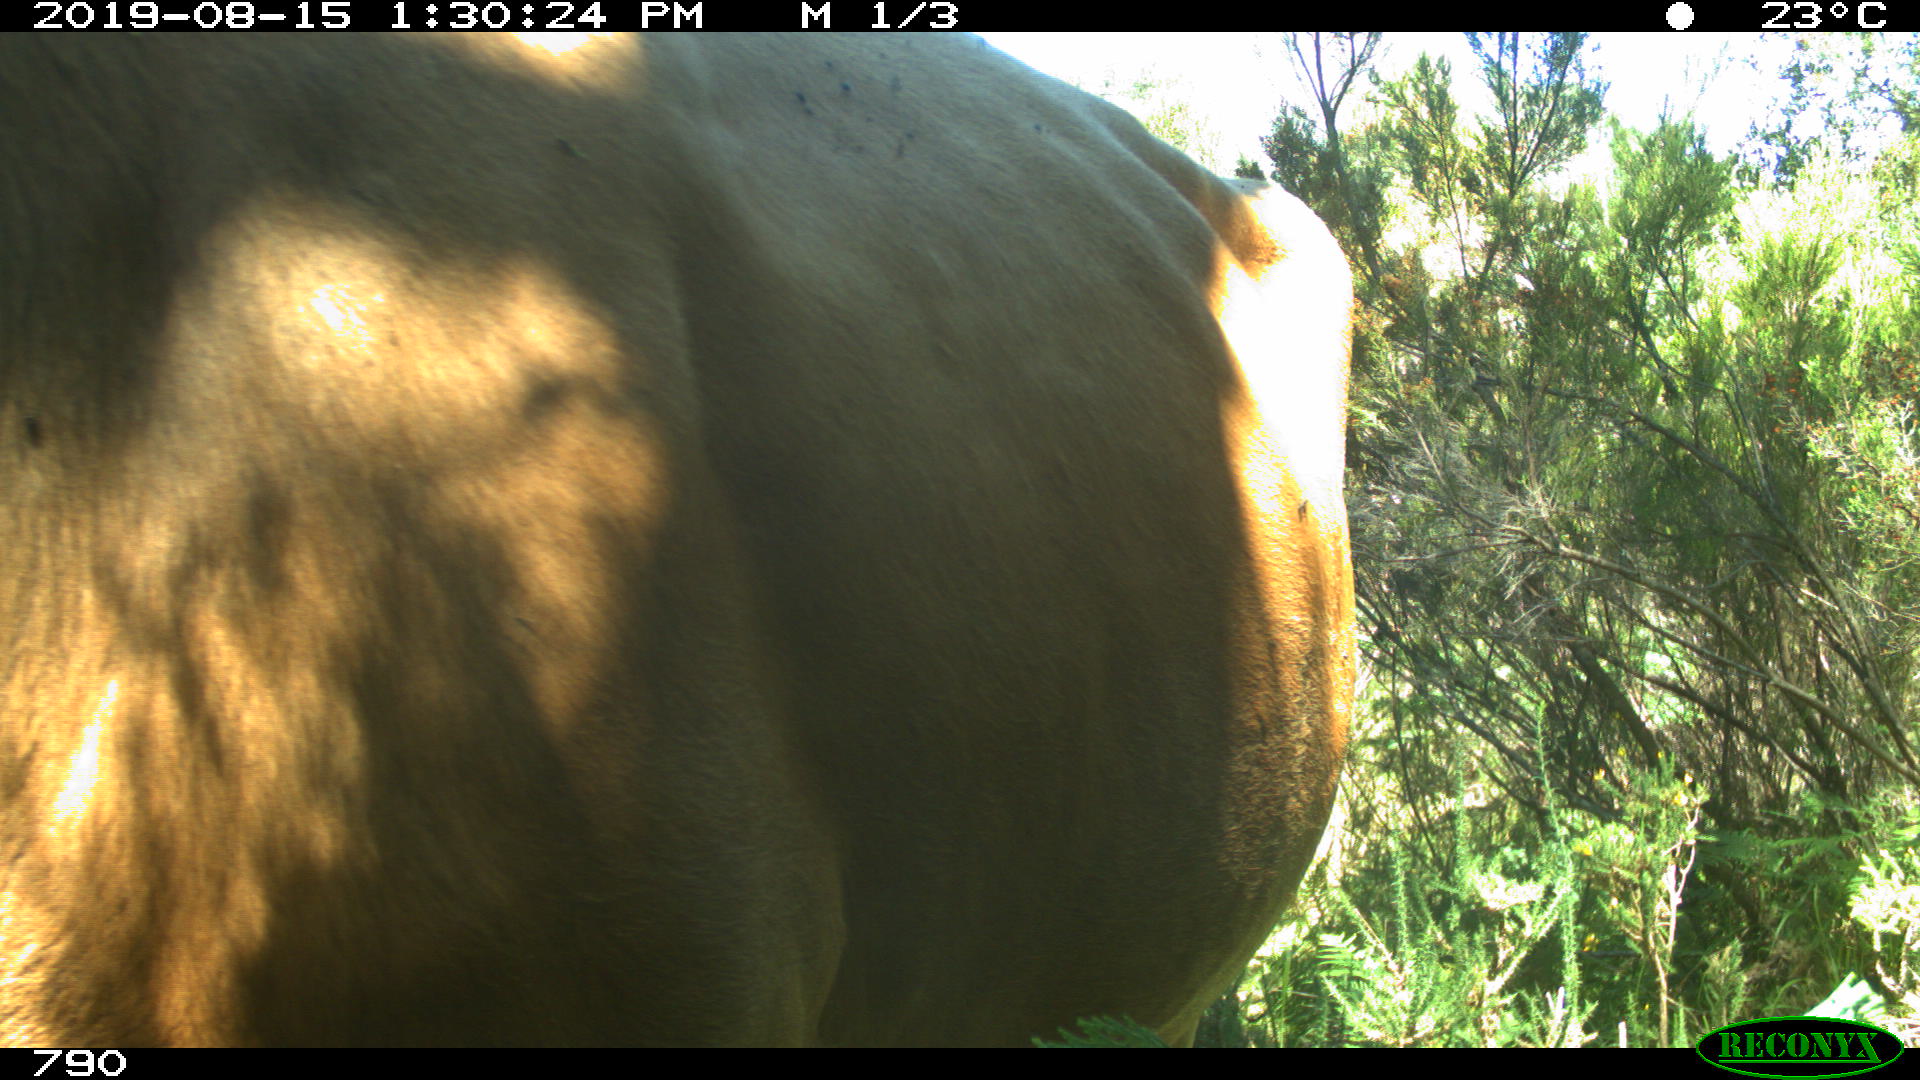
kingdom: Animalia
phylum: Chordata
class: Mammalia
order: Artiodactyla
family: Bovidae
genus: Bos
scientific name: Bos taurus
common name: Domesticated cattle
